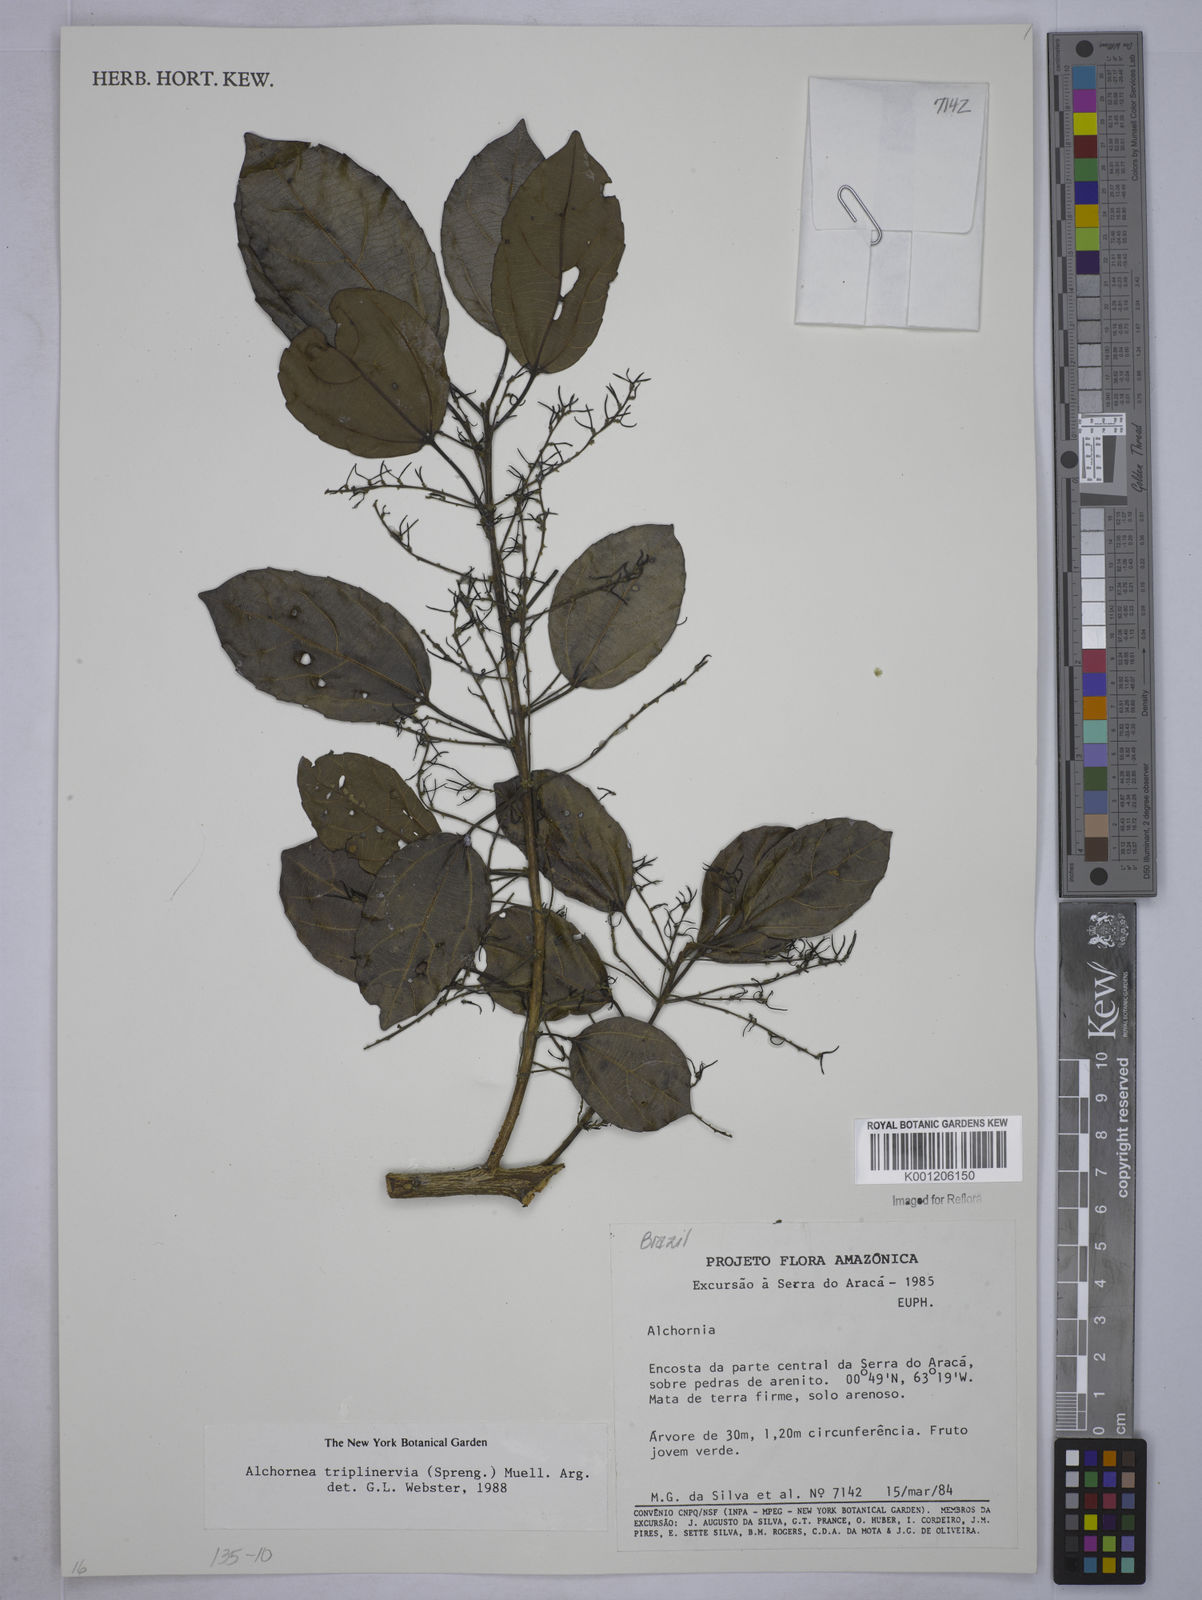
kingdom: Plantae
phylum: Tracheophyta
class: Magnoliopsida
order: Malpighiales
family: Euphorbiaceae
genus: Alchornea
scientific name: Alchornea
